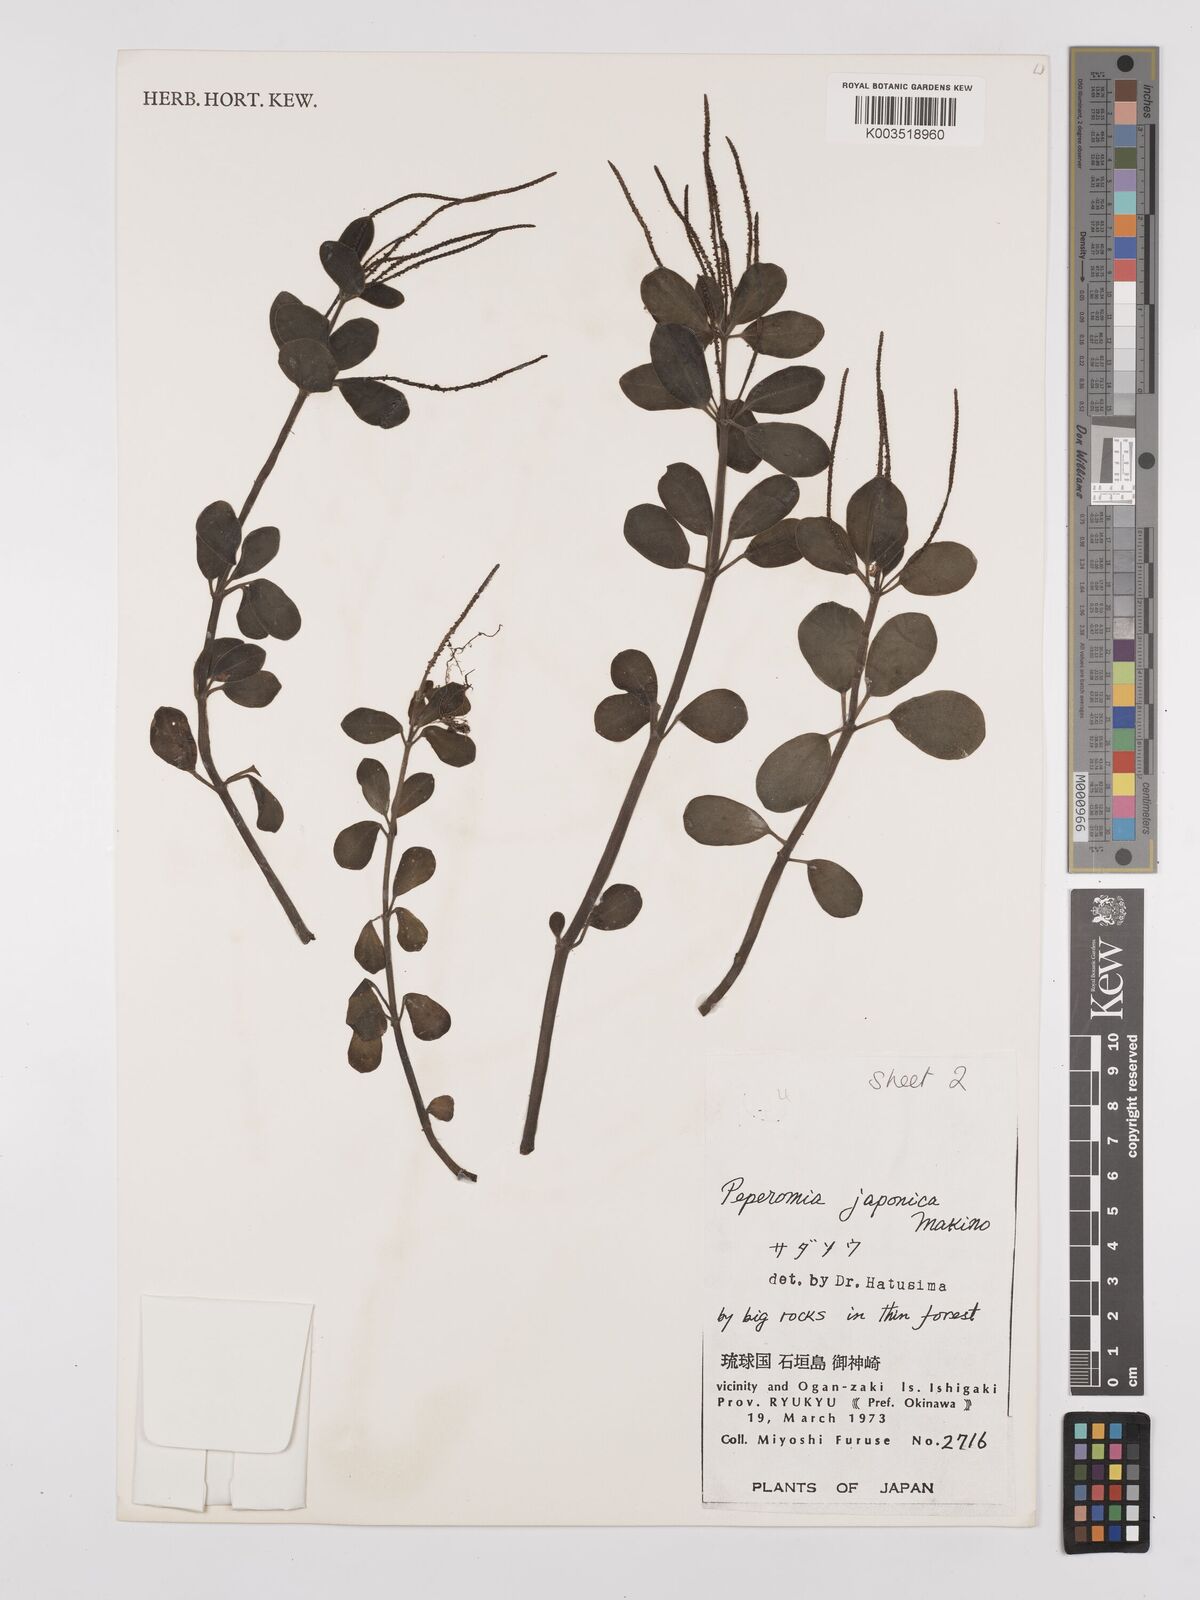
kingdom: Plantae
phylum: Tracheophyta
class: Magnoliopsida
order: Piperales
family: Piperaceae
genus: Peperomia
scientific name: Peperomia japonica
